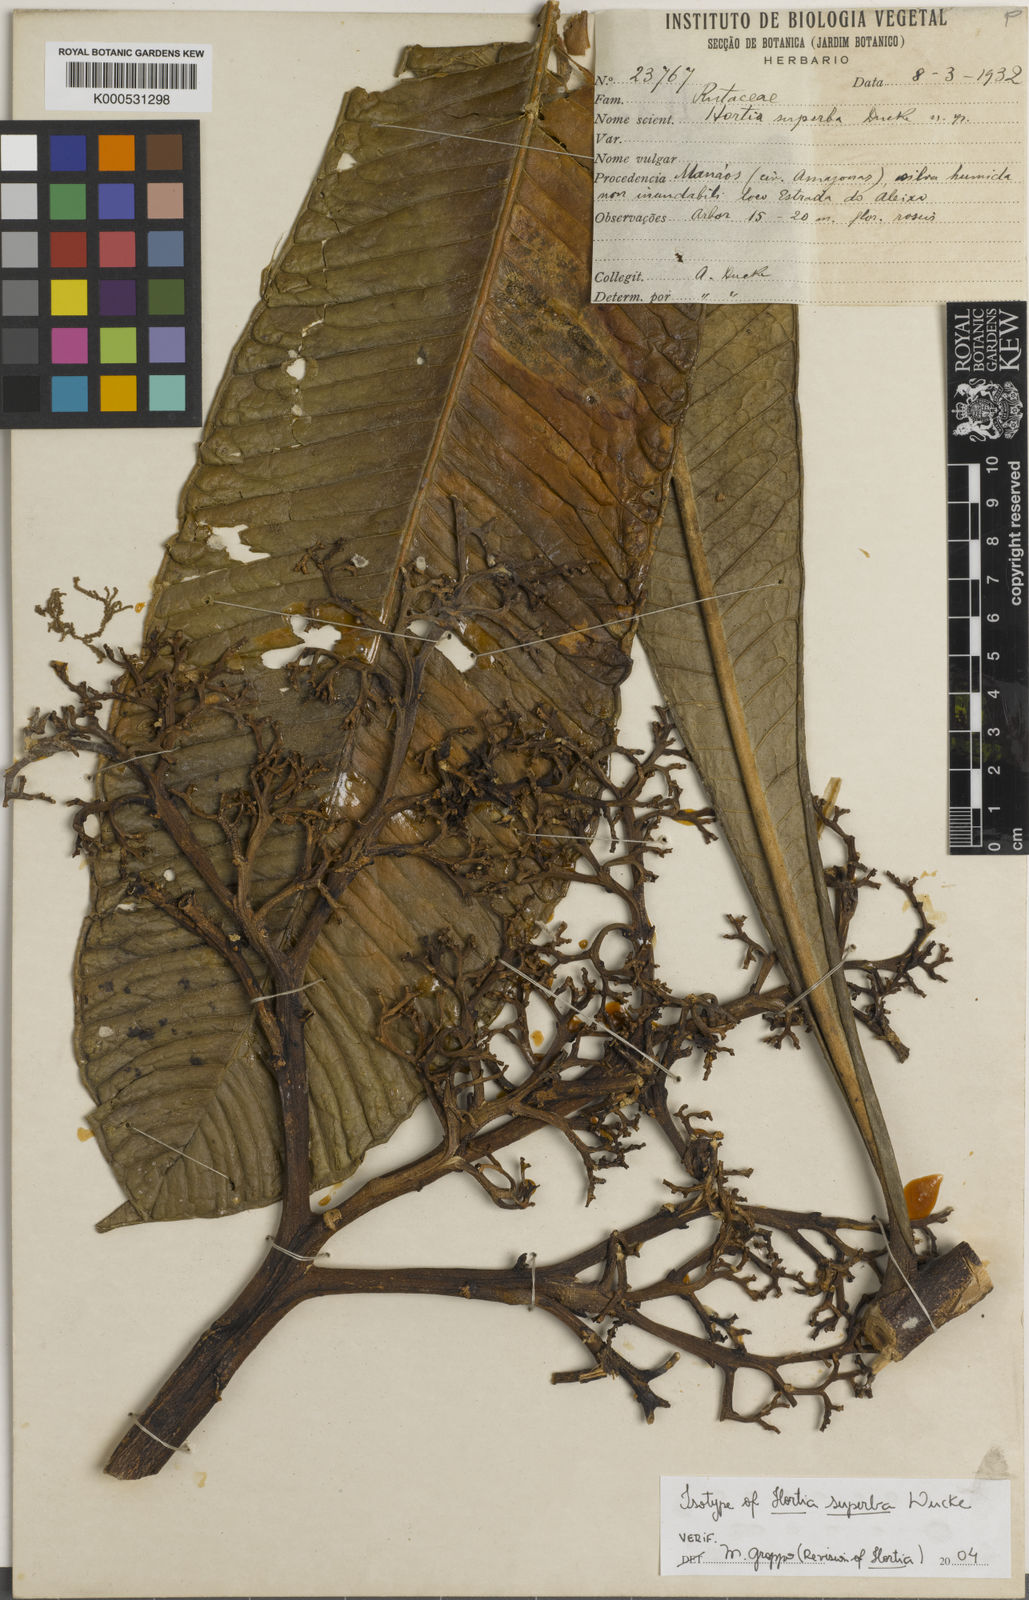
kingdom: Plantae
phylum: Tracheophyta
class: Magnoliopsida
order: Sapindales
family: Rutaceae
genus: Hortia
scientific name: Hortia superba
